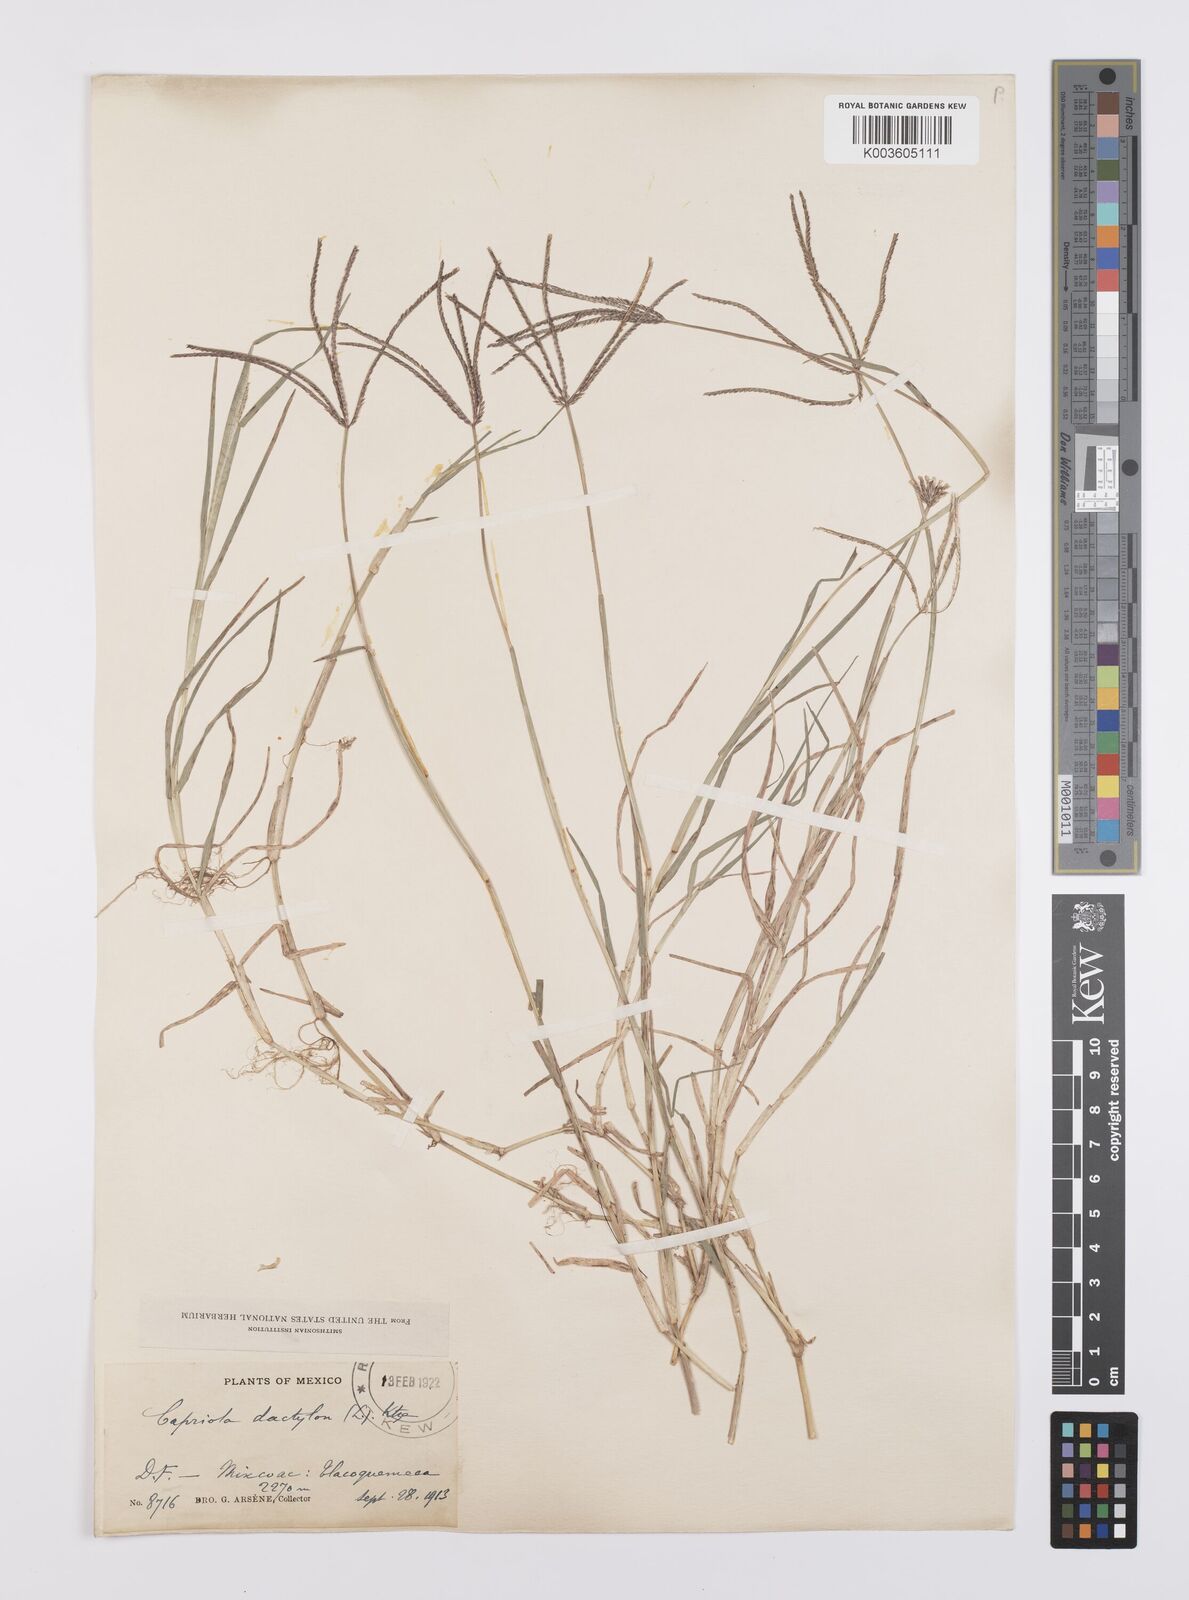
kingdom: Plantae
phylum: Tracheophyta
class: Liliopsida
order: Poales
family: Poaceae
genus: Cynodon
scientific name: Cynodon dactylon
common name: Bermuda grass
